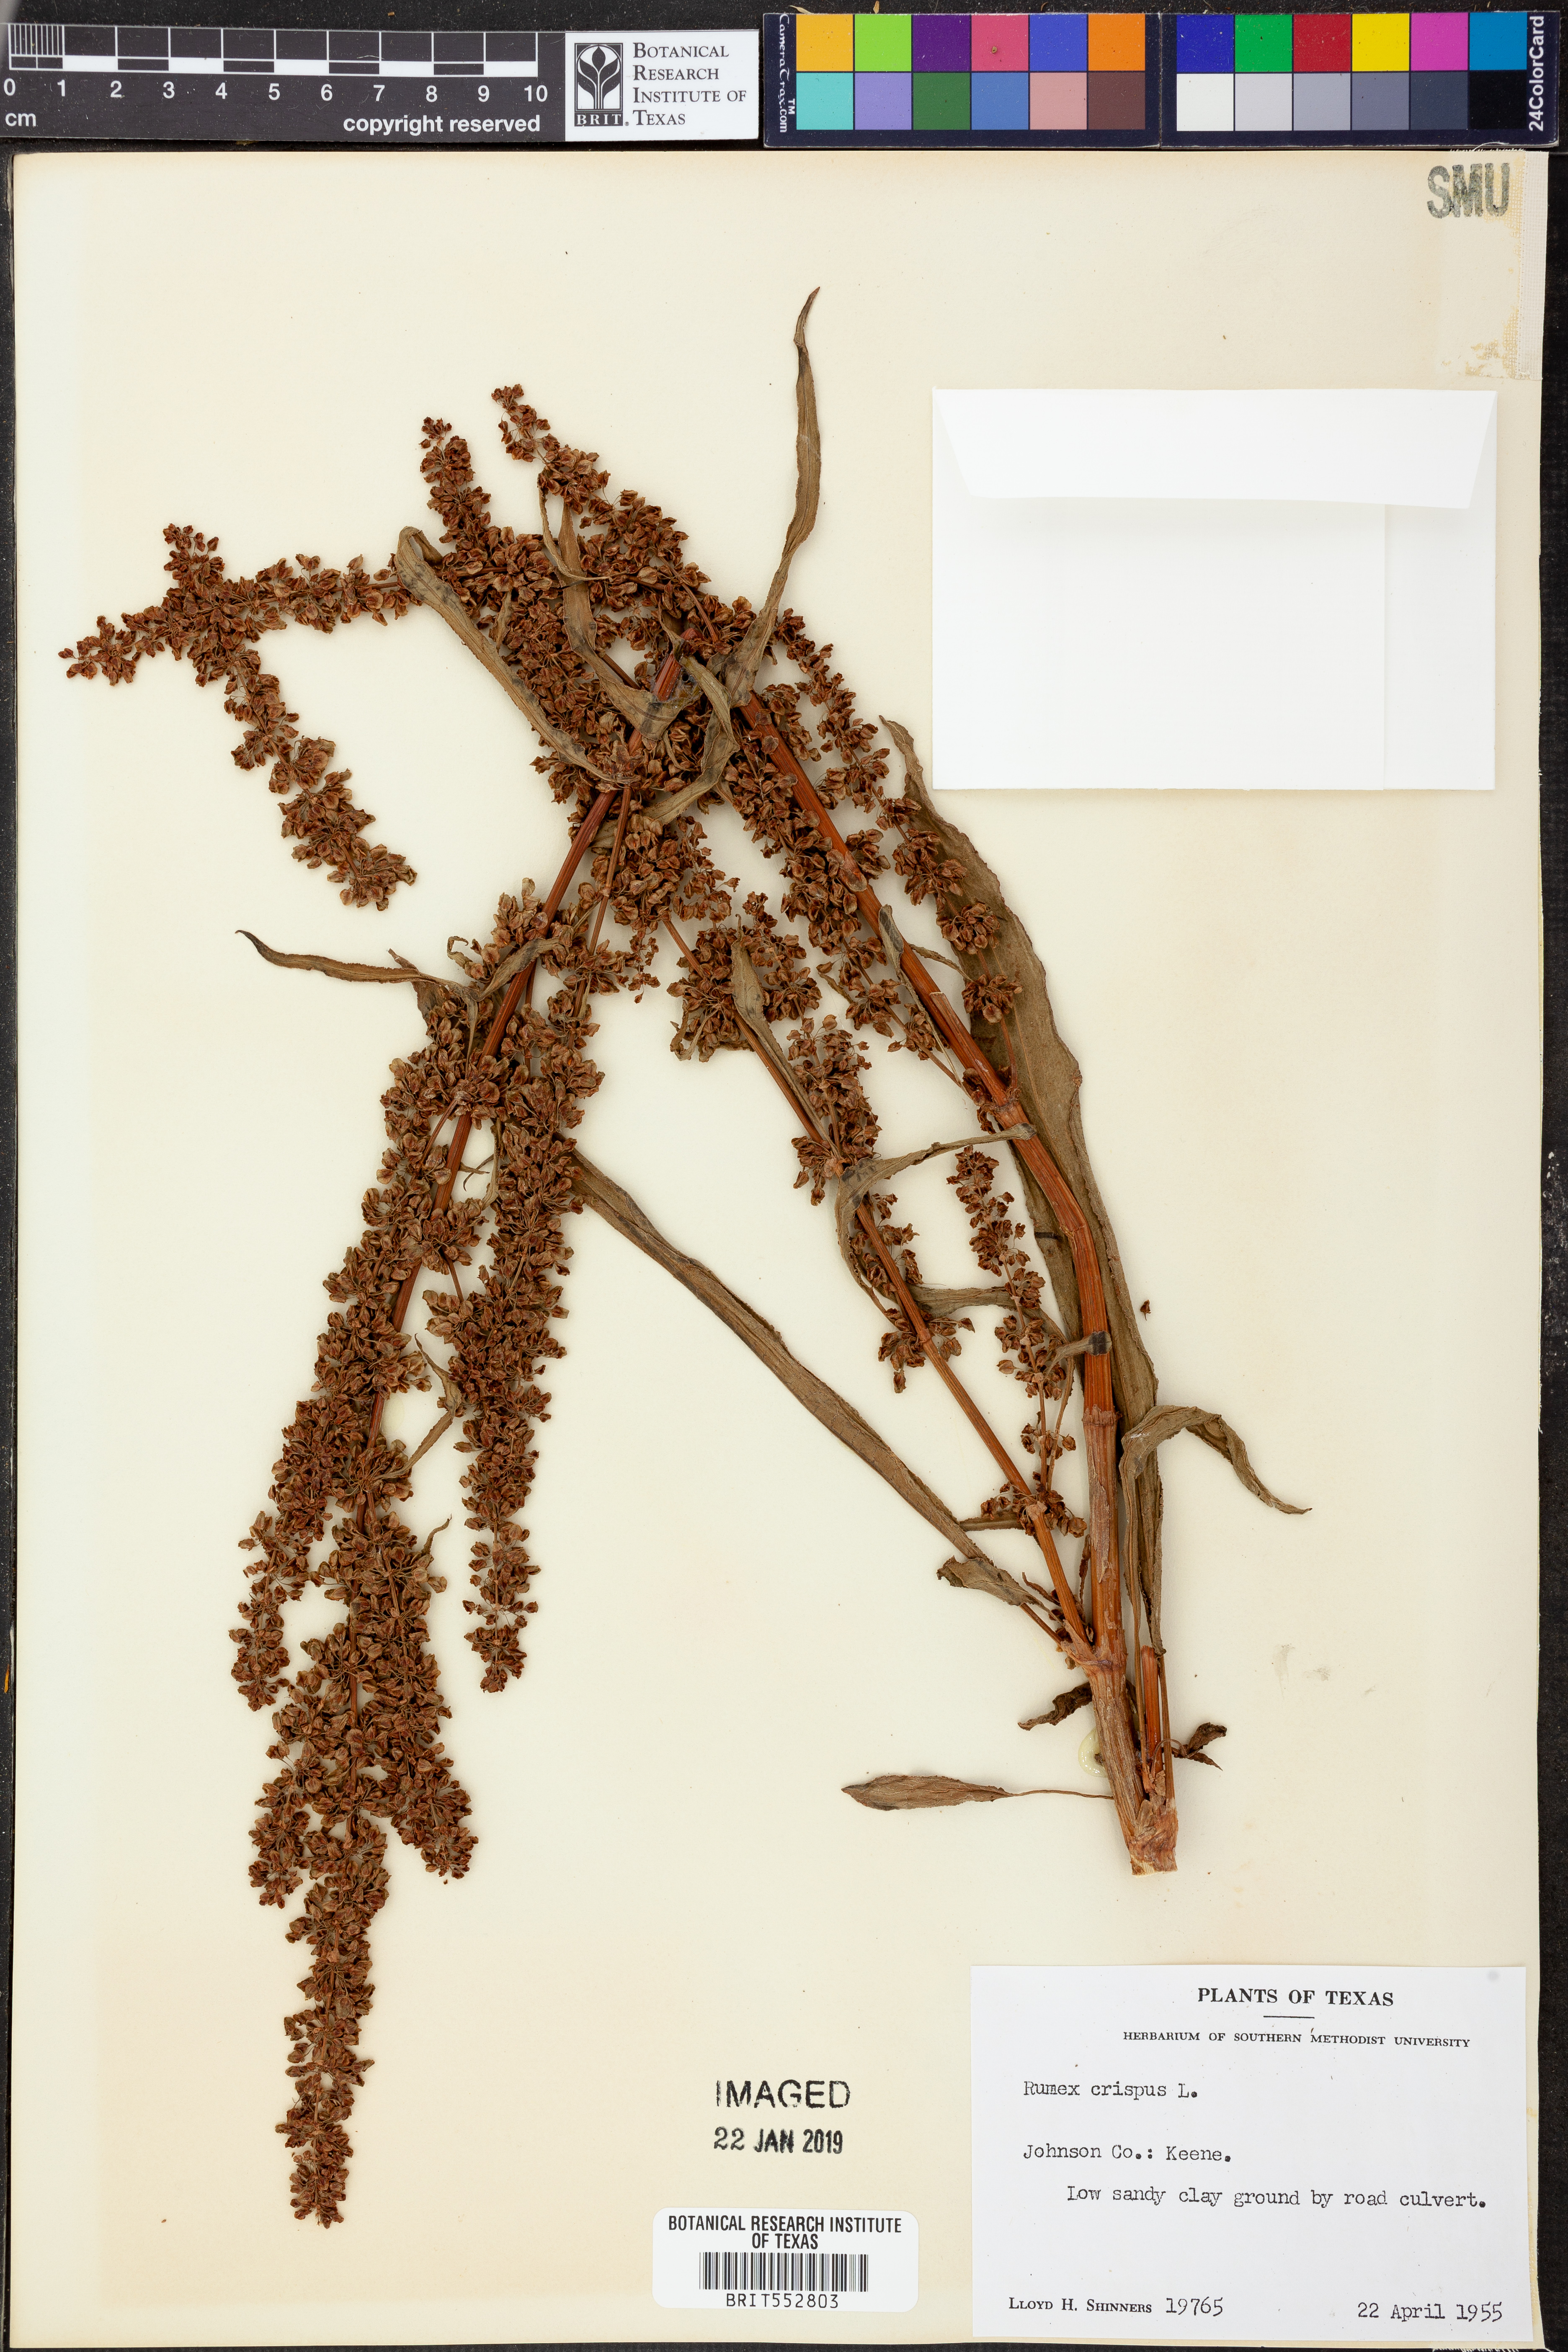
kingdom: Plantae
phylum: Tracheophyta
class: Magnoliopsida
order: Caryophyllales
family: Polygonaceae
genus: Rumex
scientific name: Rumex crispus
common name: Curled dock
